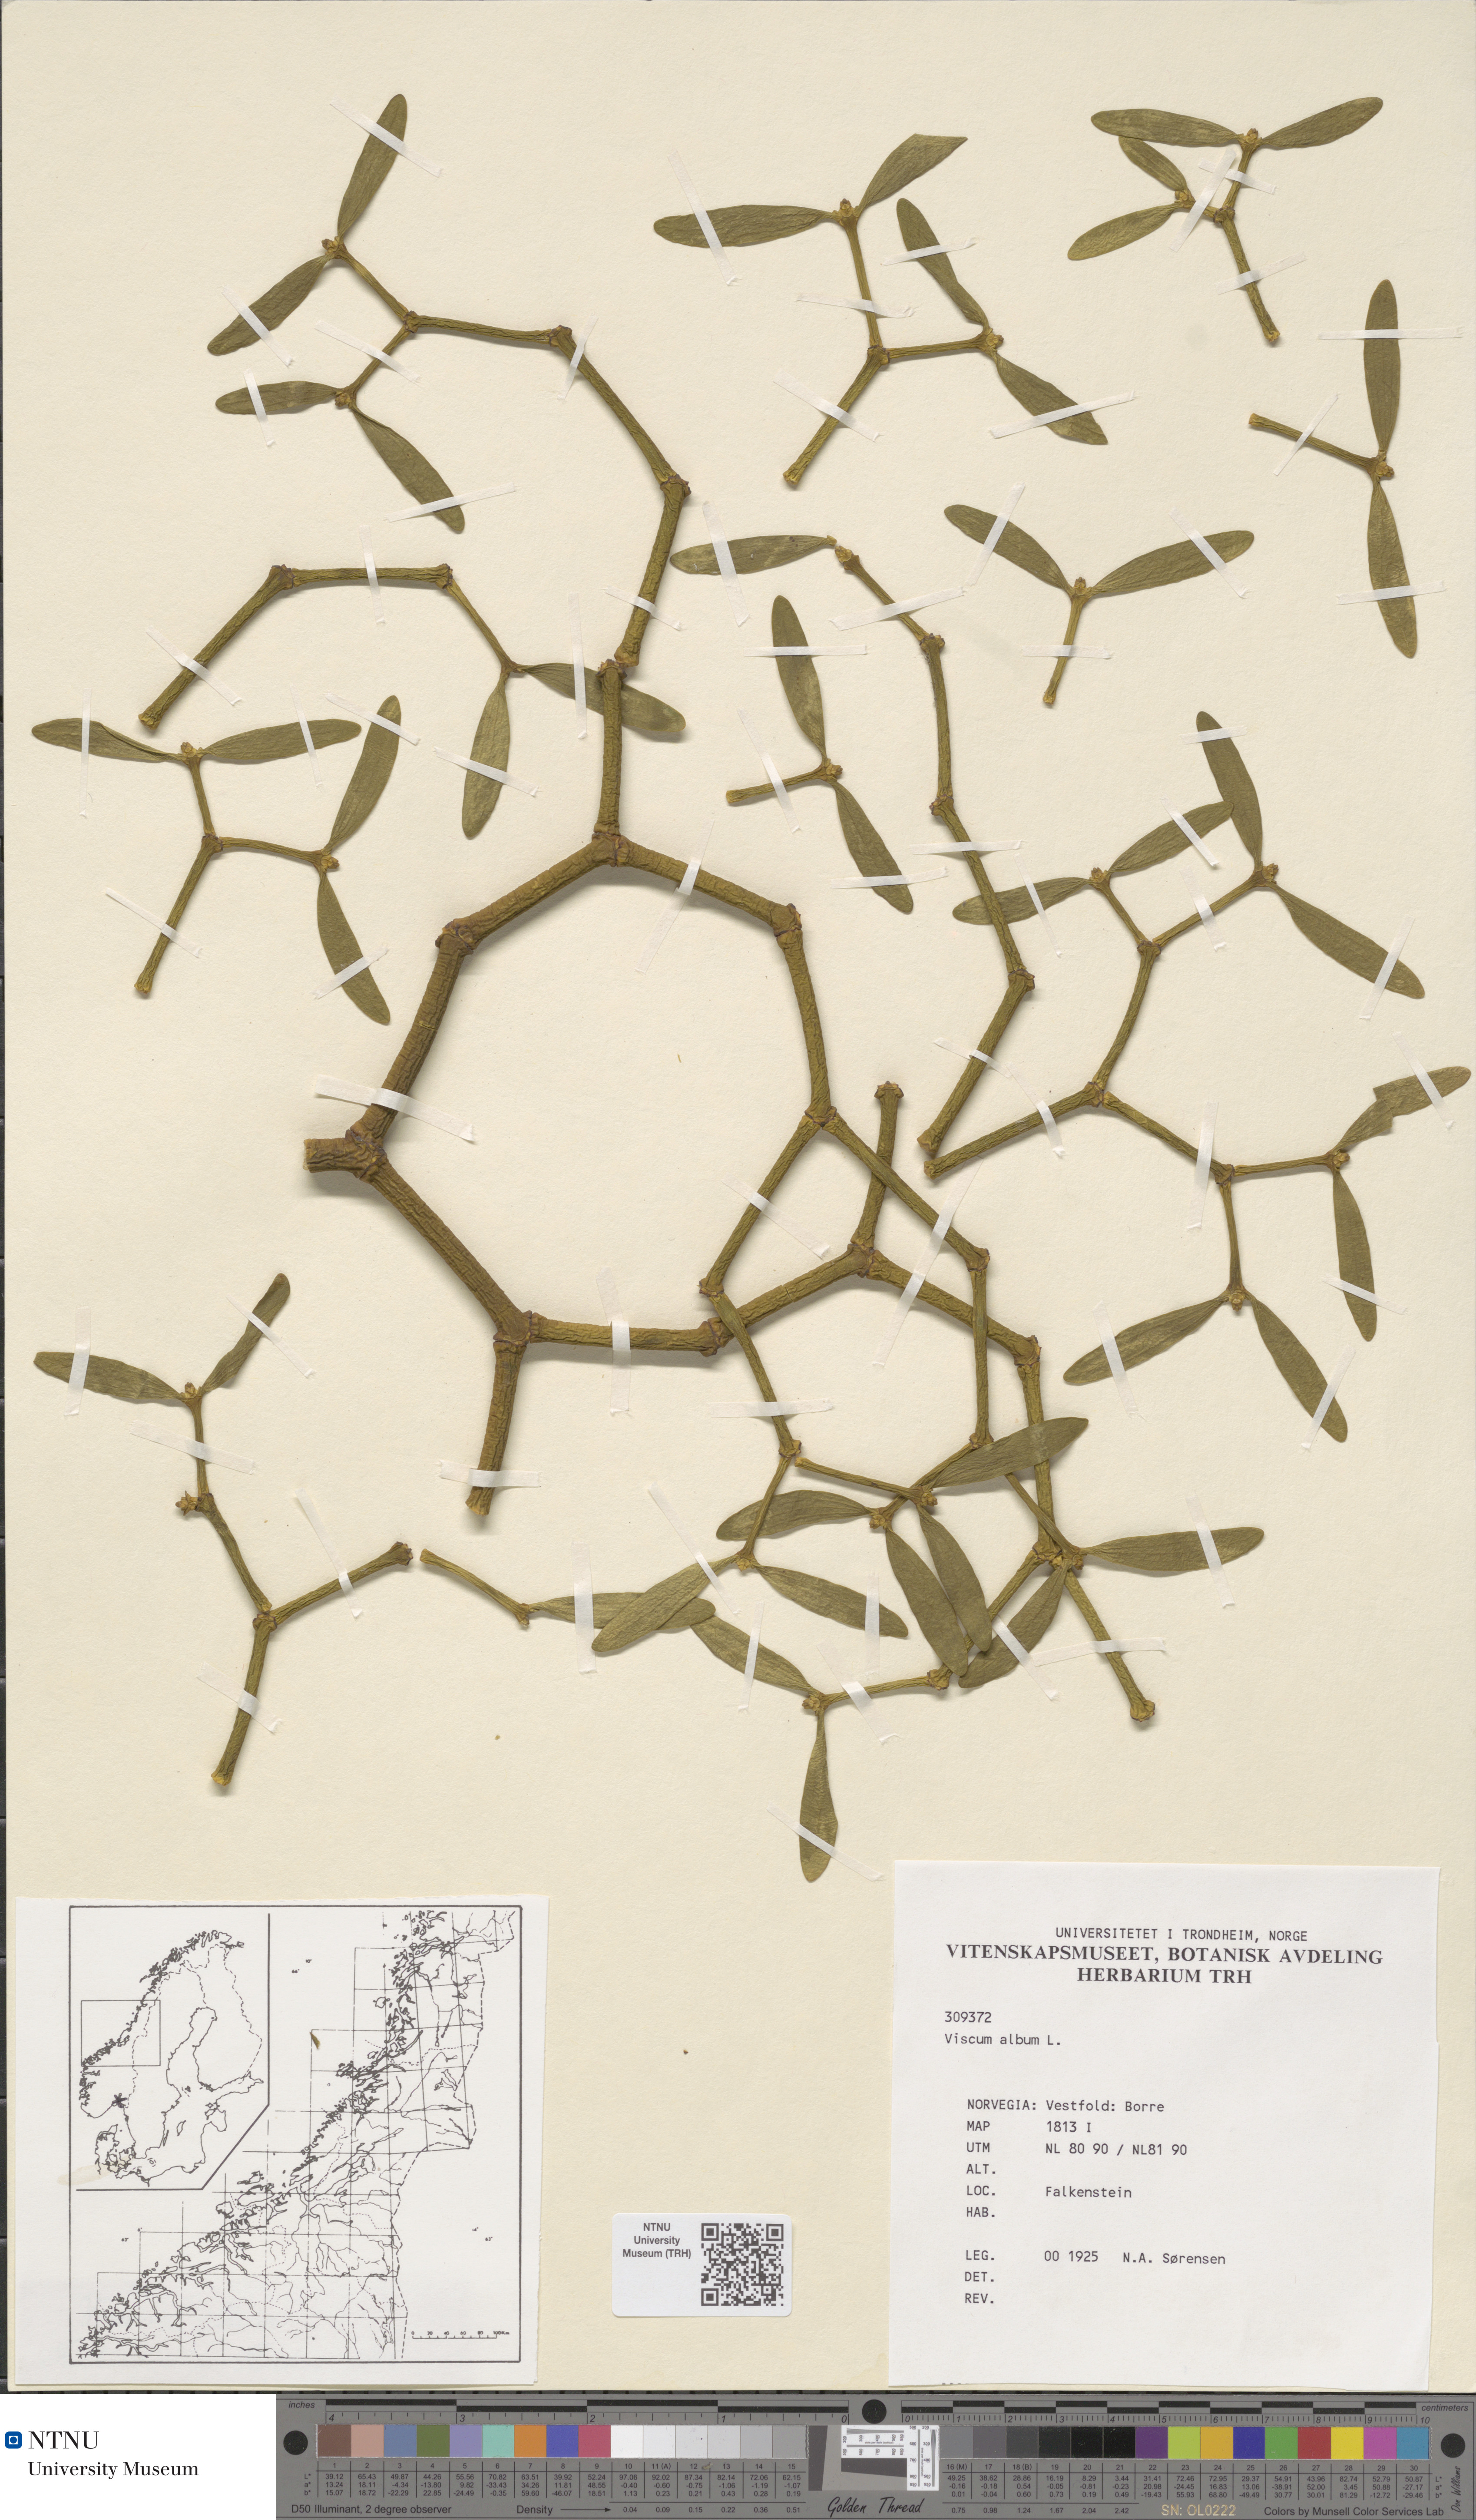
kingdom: Plantae
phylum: Tracheophyta
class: Magnoliopsida
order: Santalales
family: Viscaceae
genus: Viscum
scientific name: Viscum album
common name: Mistletoe
